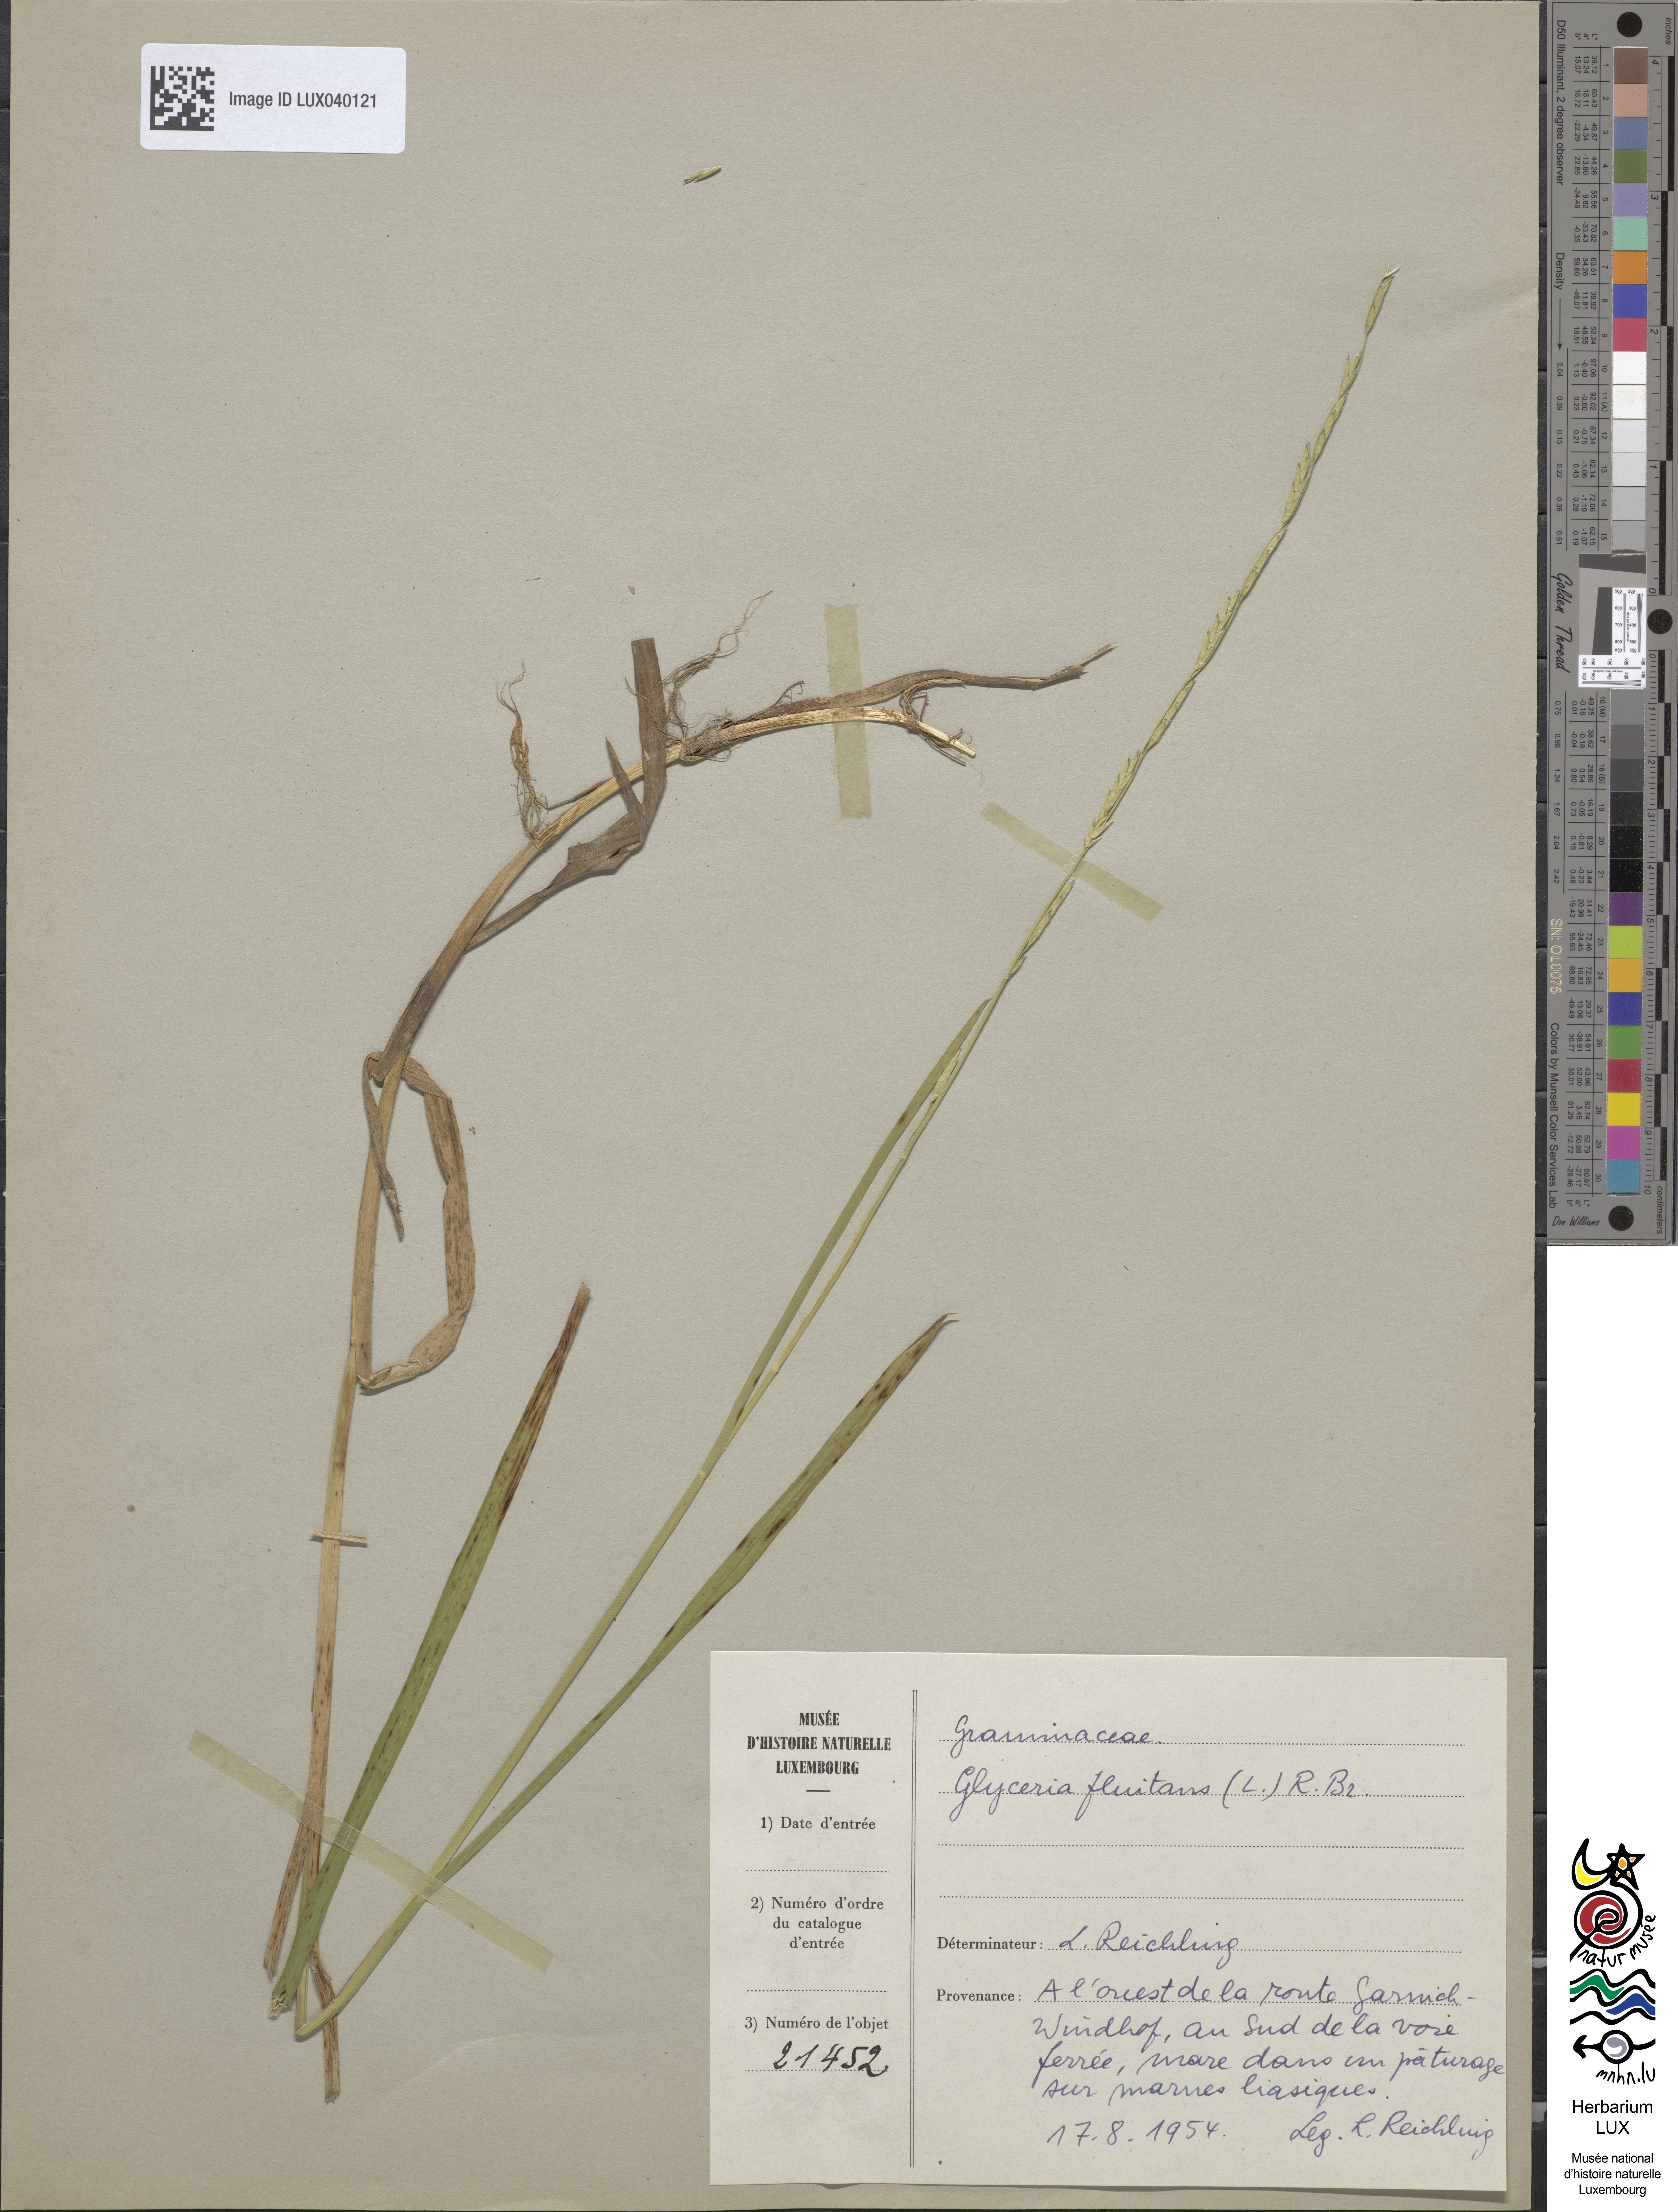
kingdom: Plantae
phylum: Tracheophyta
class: Liliopsida
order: Poales
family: Poaceae
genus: Glyceria
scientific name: Glyceria fluitans
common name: Floating sweet-grass
